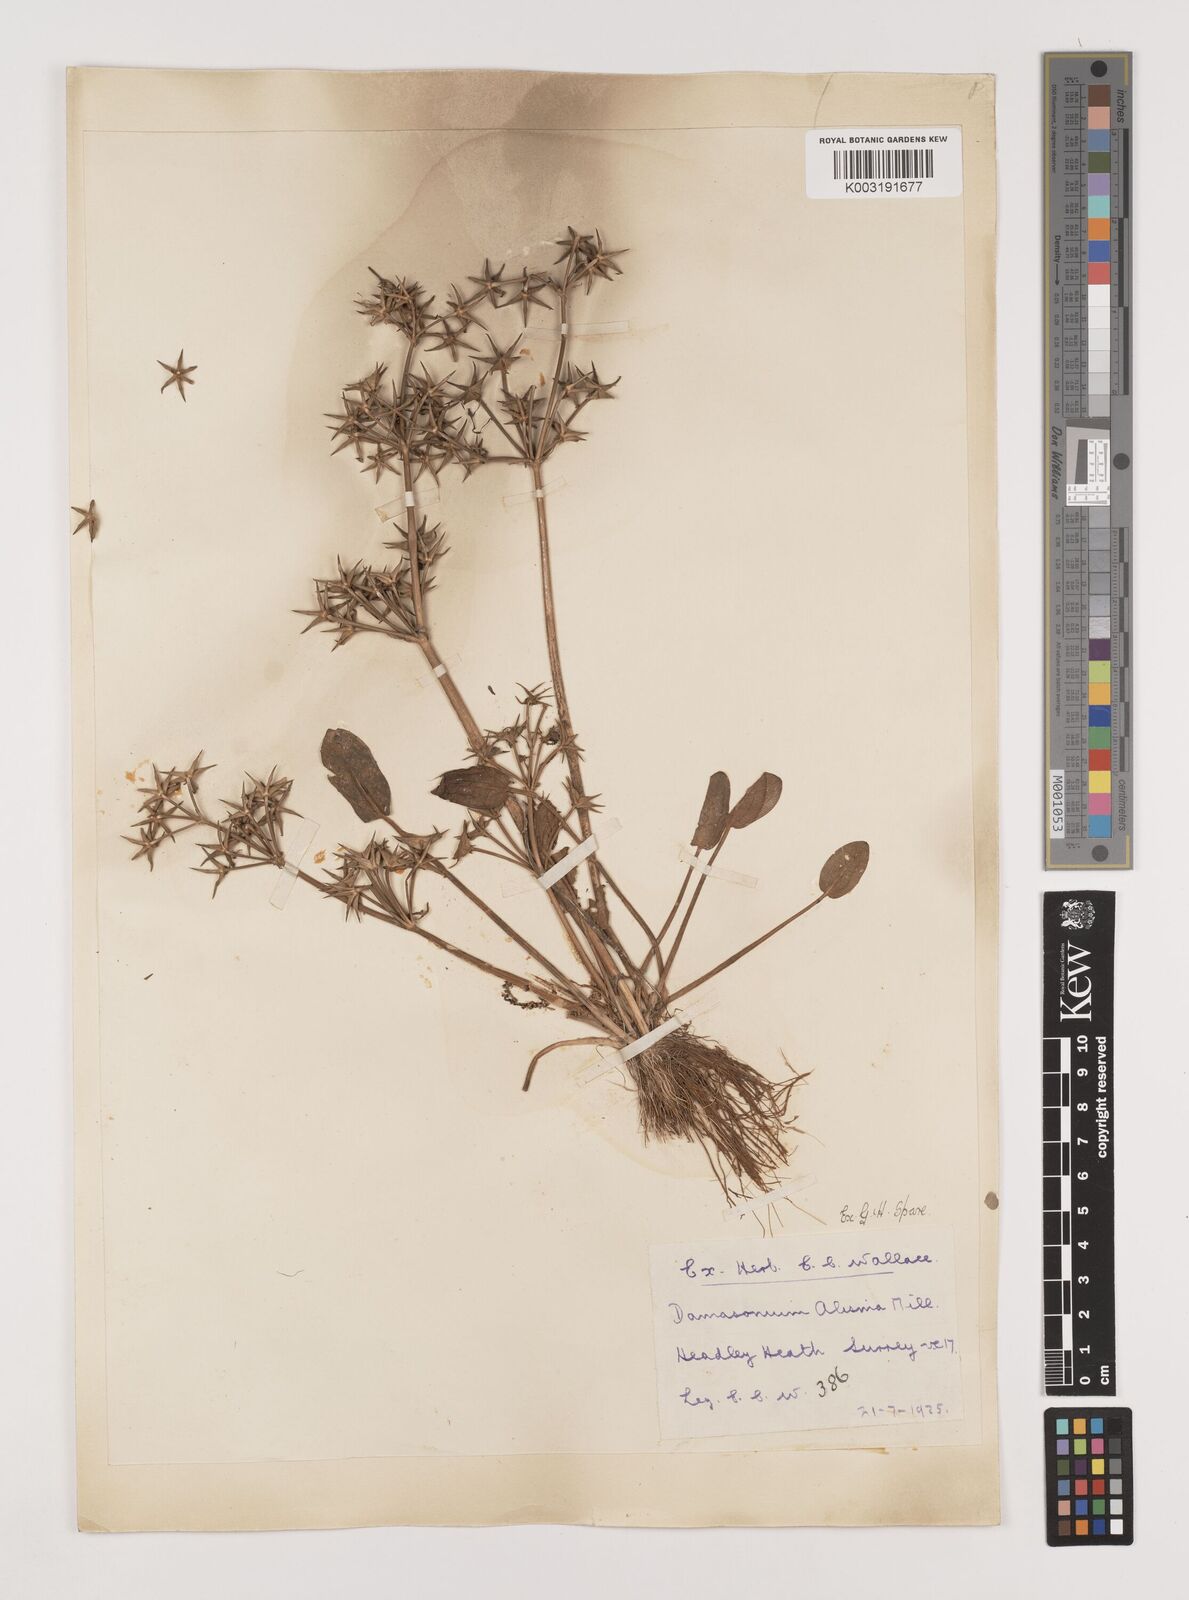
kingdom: Plantae
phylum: Tracheophyta
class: Liliopsida
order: Alismatales
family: Alismataceae
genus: Damasonium
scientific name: Damasonium alisma
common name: Starfruit
